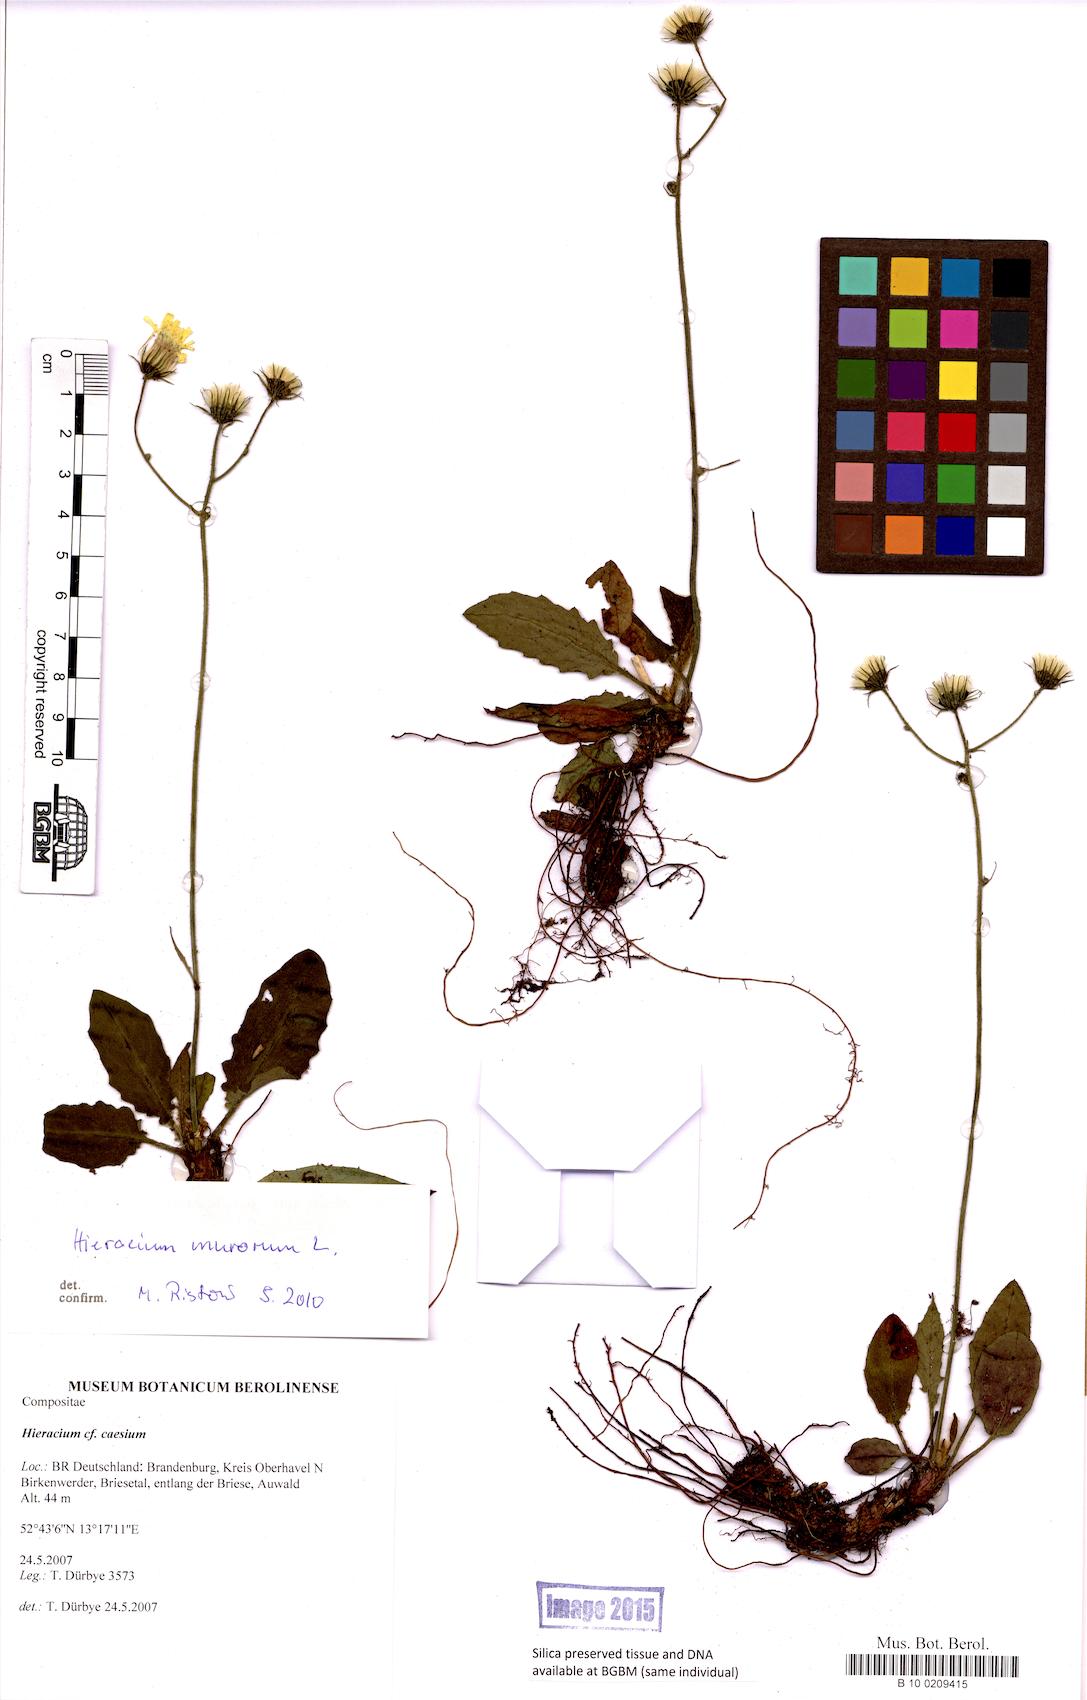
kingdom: Plantae
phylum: Tracheophyta
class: Magnoliopsida
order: Asterales
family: Asteraceae
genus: Hieracium
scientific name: Hieracium caesium
